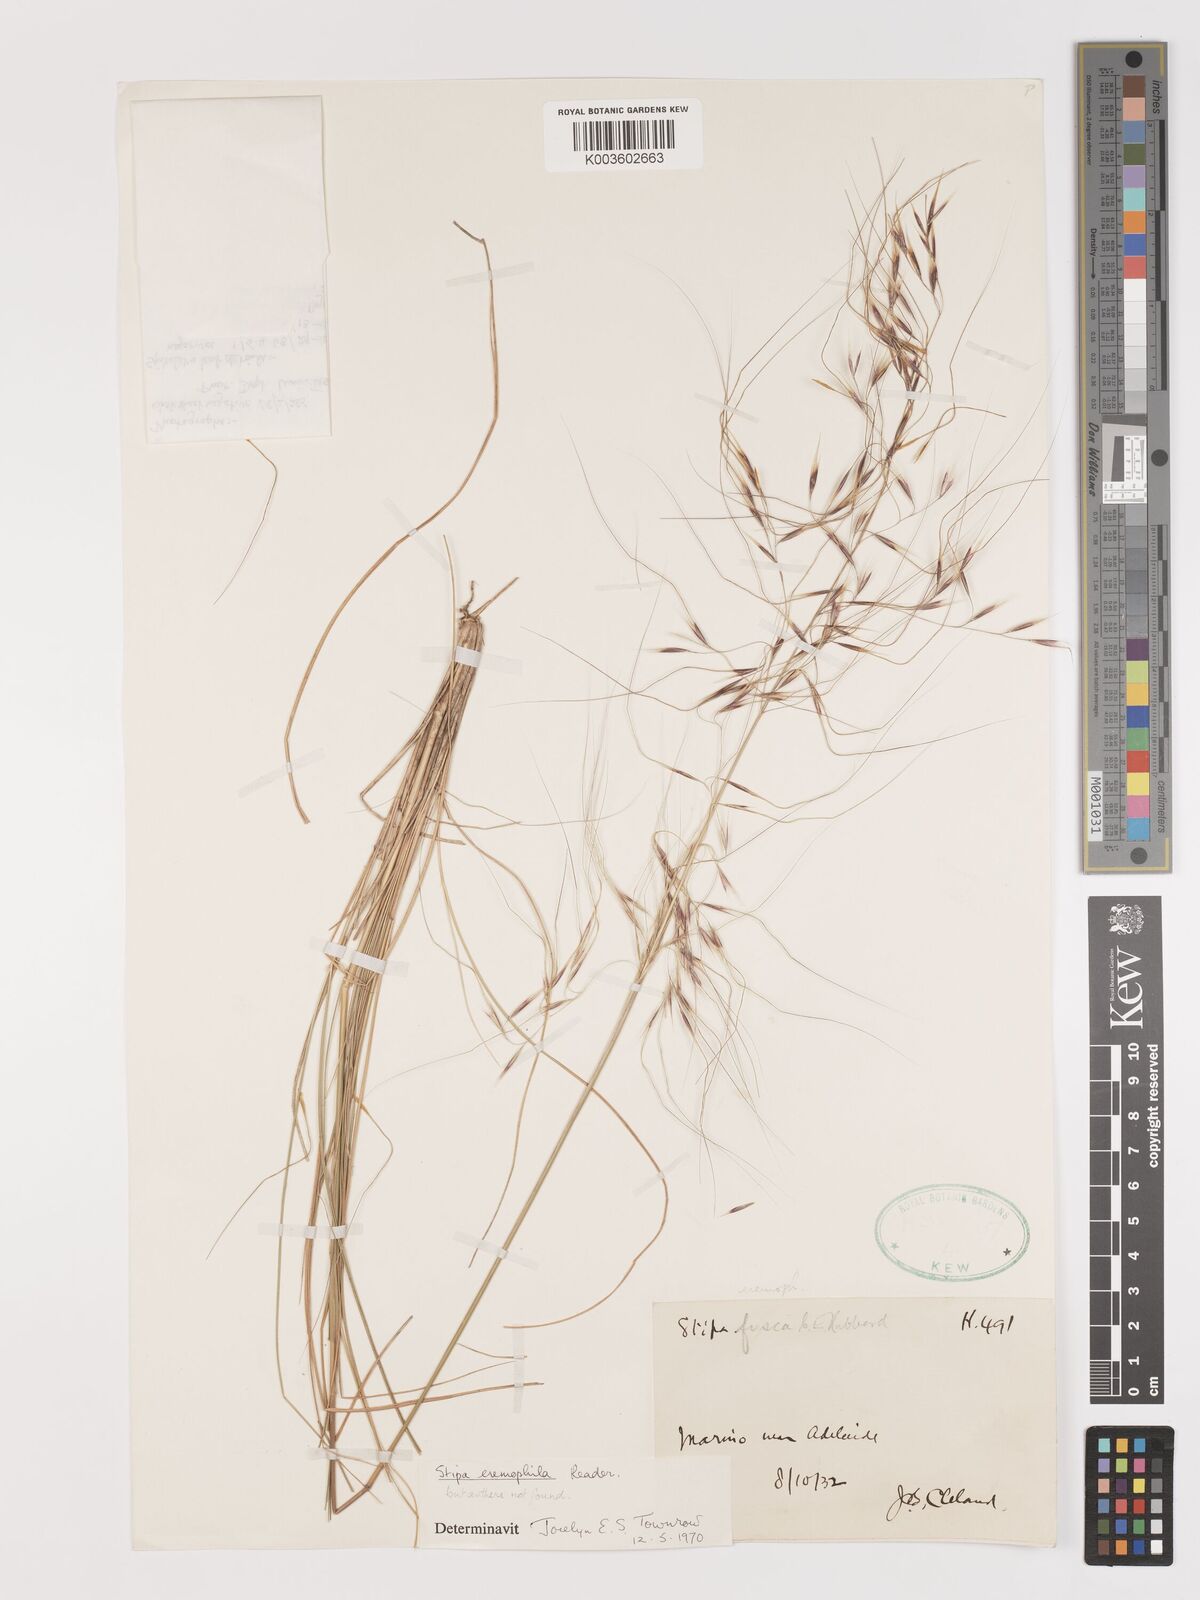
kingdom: Plantae
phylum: Tracheophyta
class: Liliopsida
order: Poales
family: Poaceae
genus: Austrostipa
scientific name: Austrostipa eremophila
